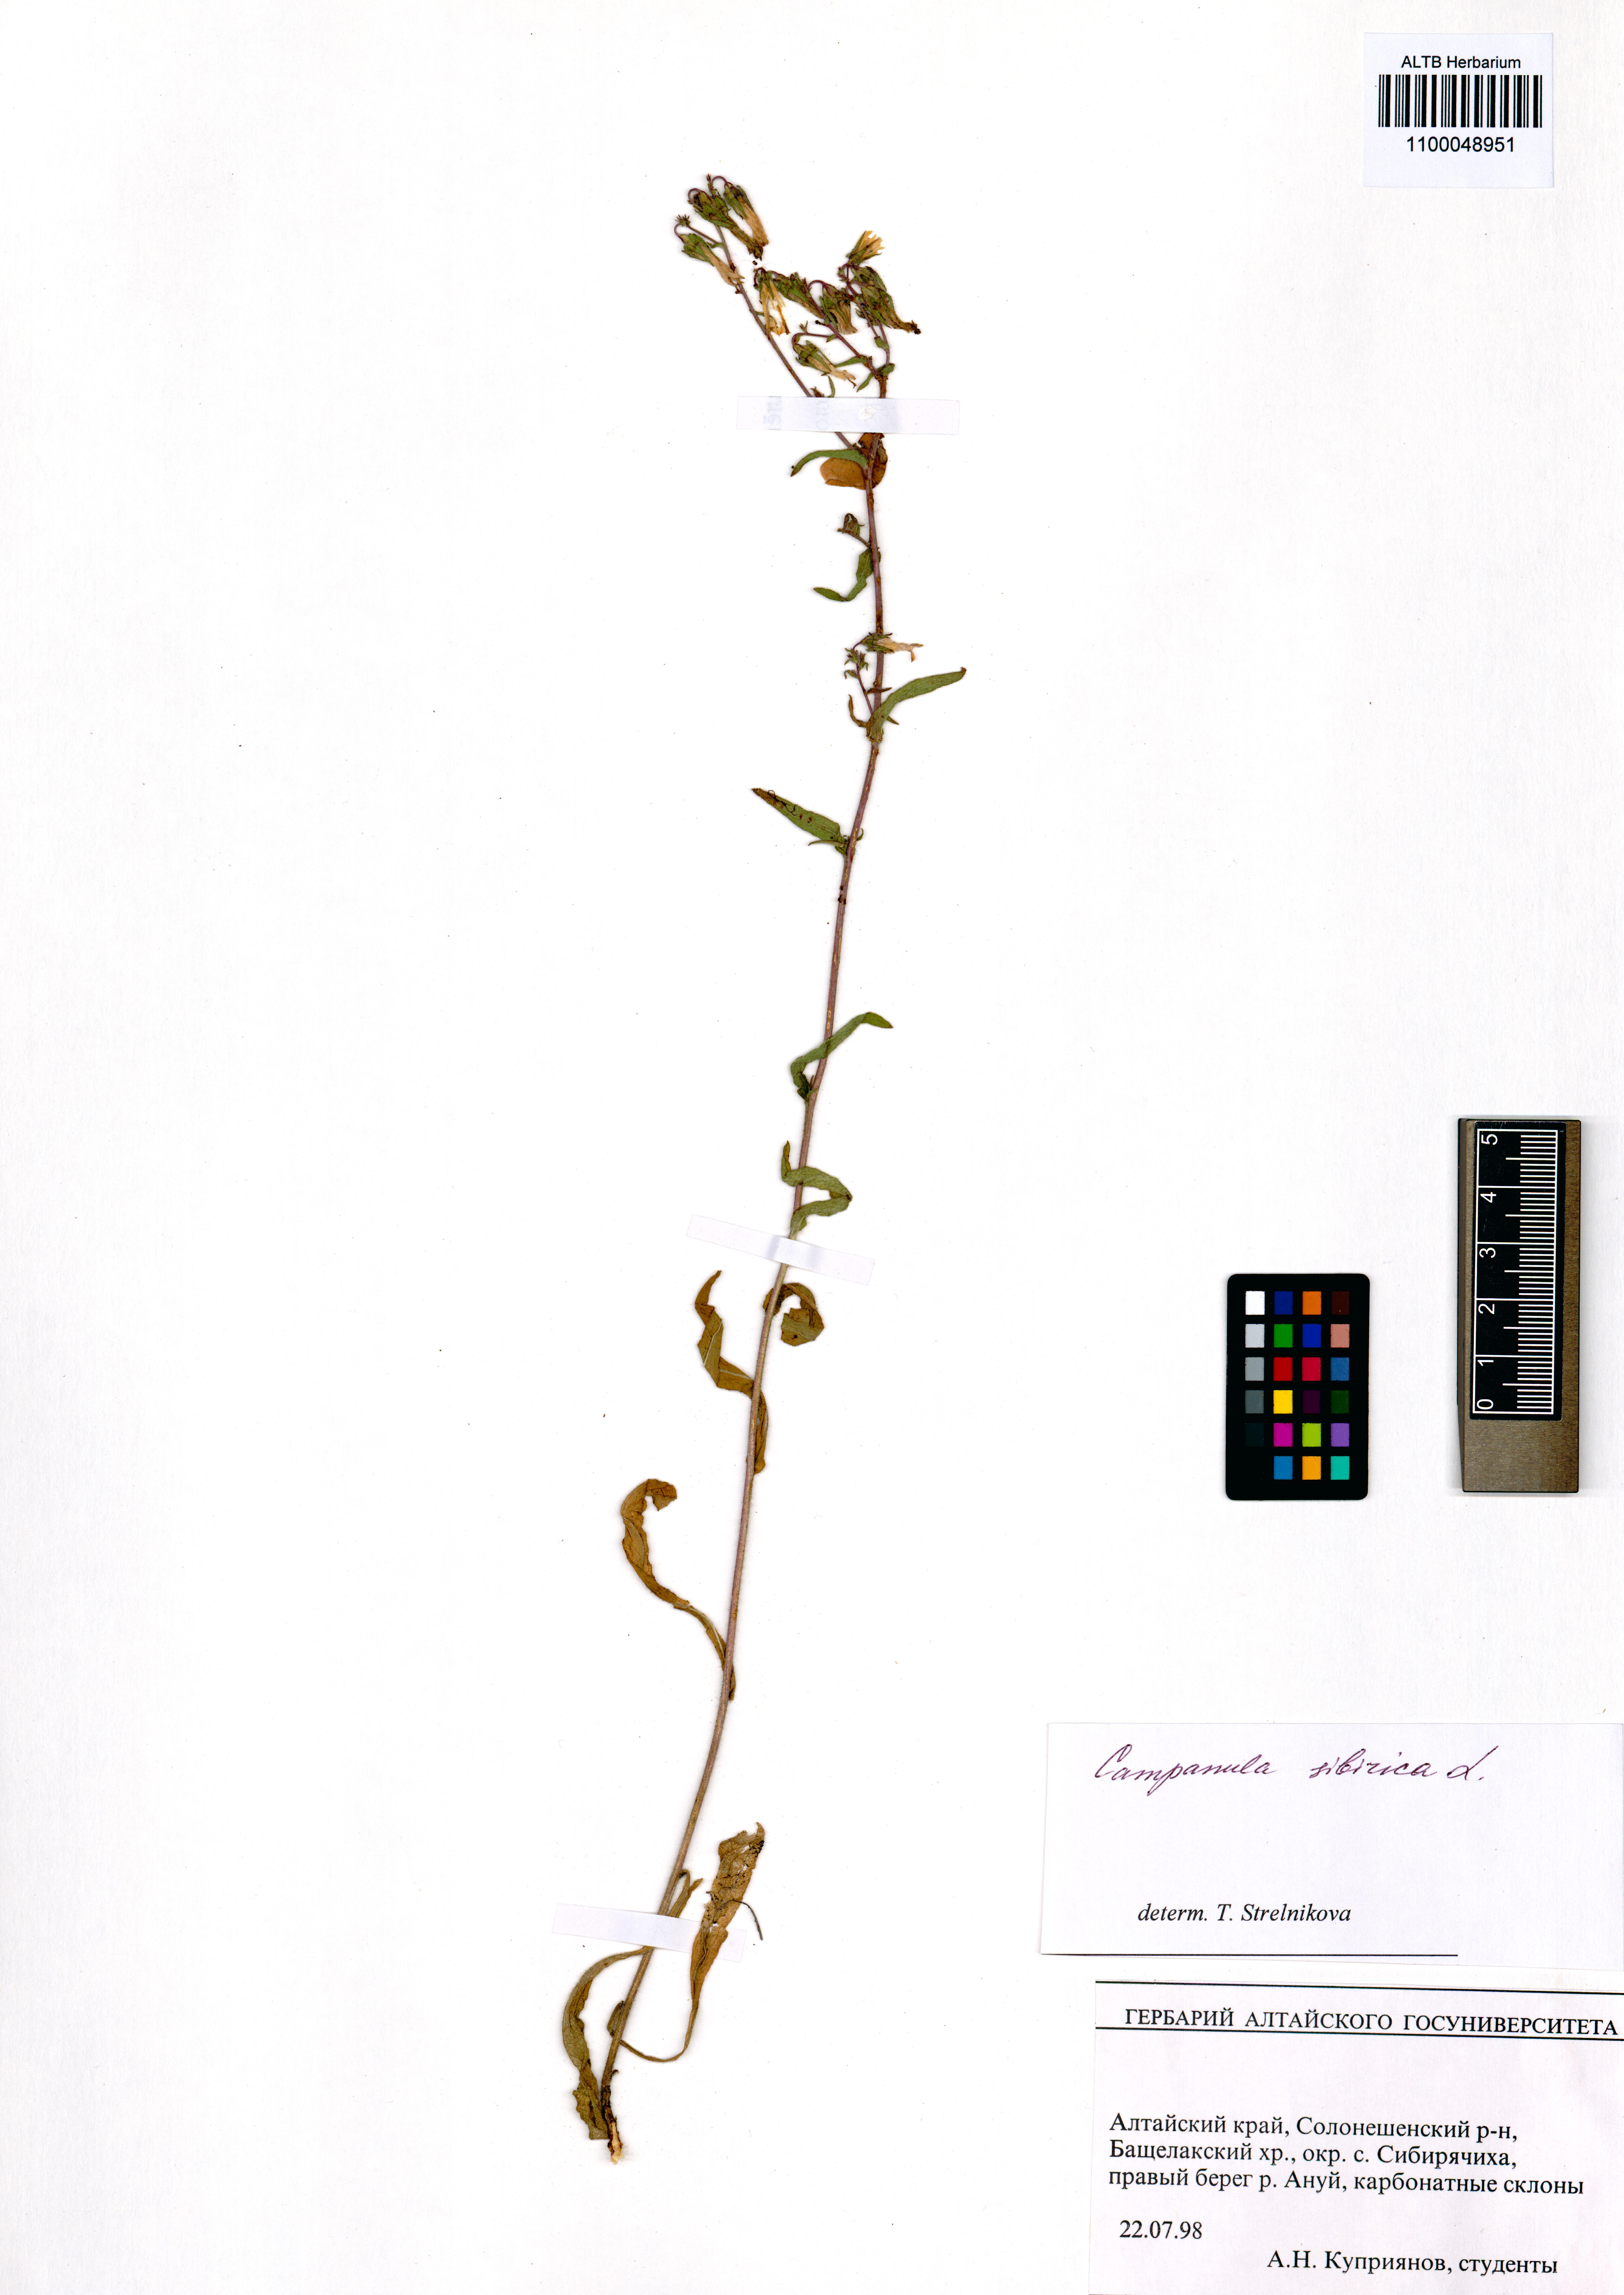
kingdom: Plantae
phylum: Tracheophyta
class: Magnoliopsida
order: Asterales
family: Campanulaceae
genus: Campanula
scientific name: Campanula sibirica
